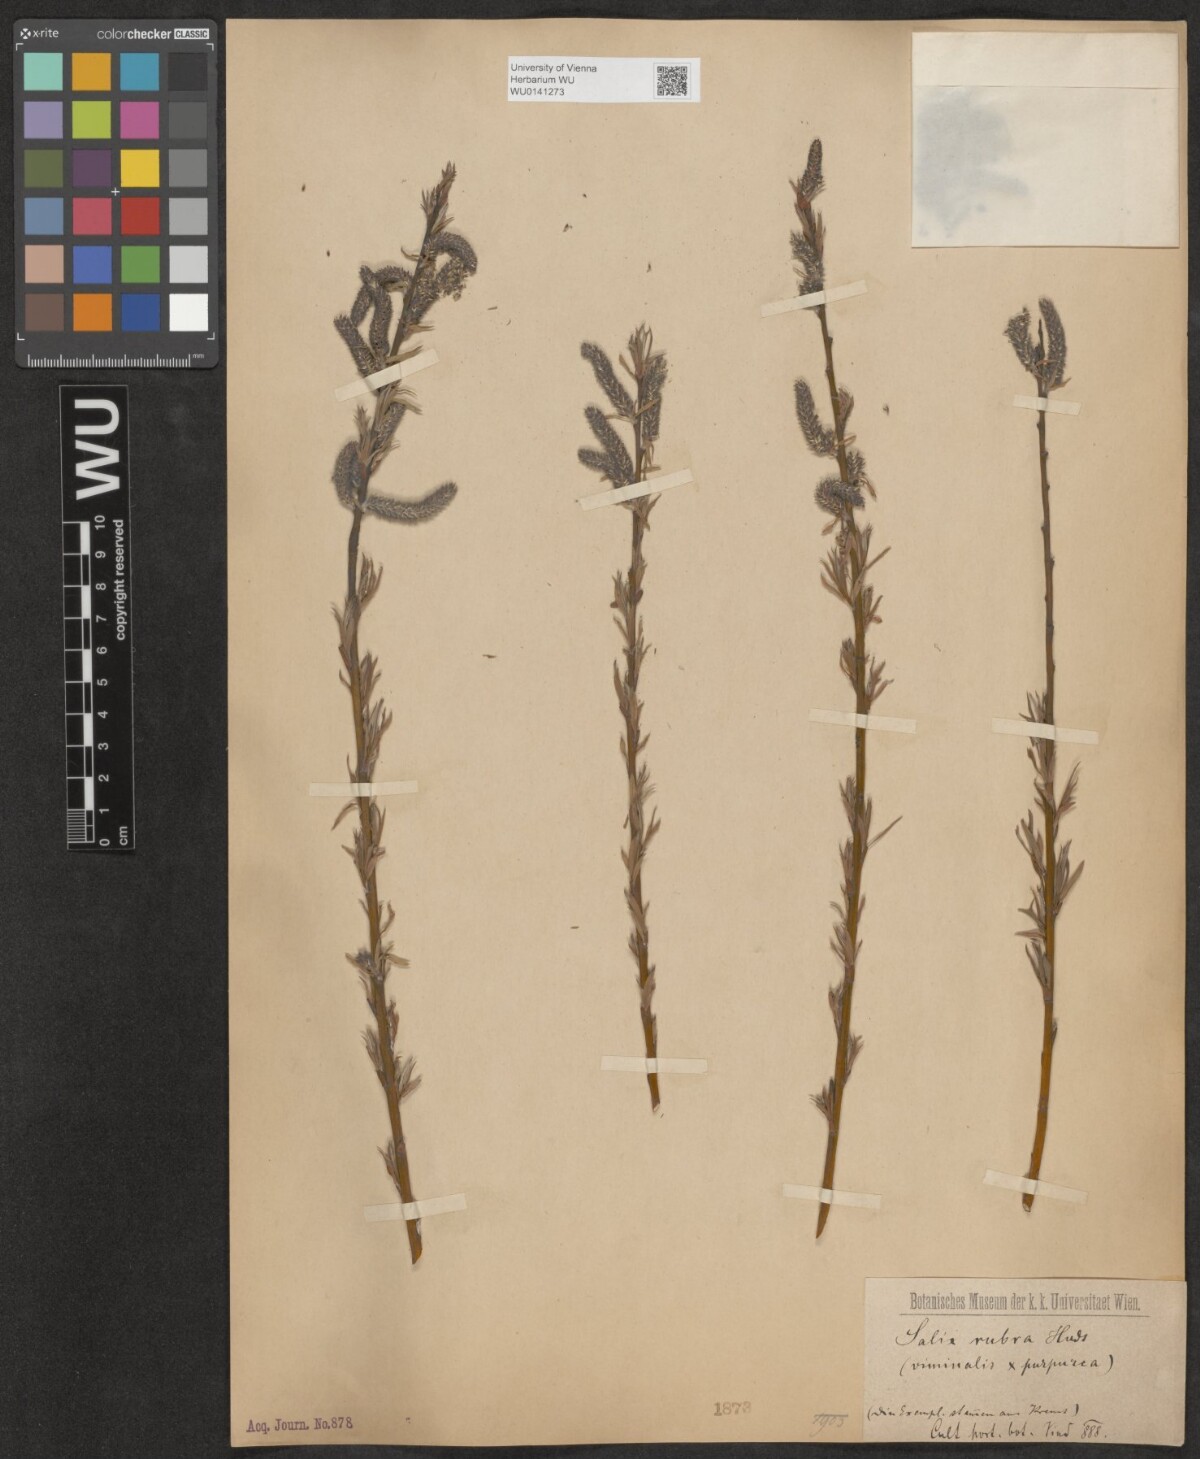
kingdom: Plantae
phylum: Tracheophyta
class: Magnoliopsida
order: Malpighiales
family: Salicaceae
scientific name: Salicaceae
